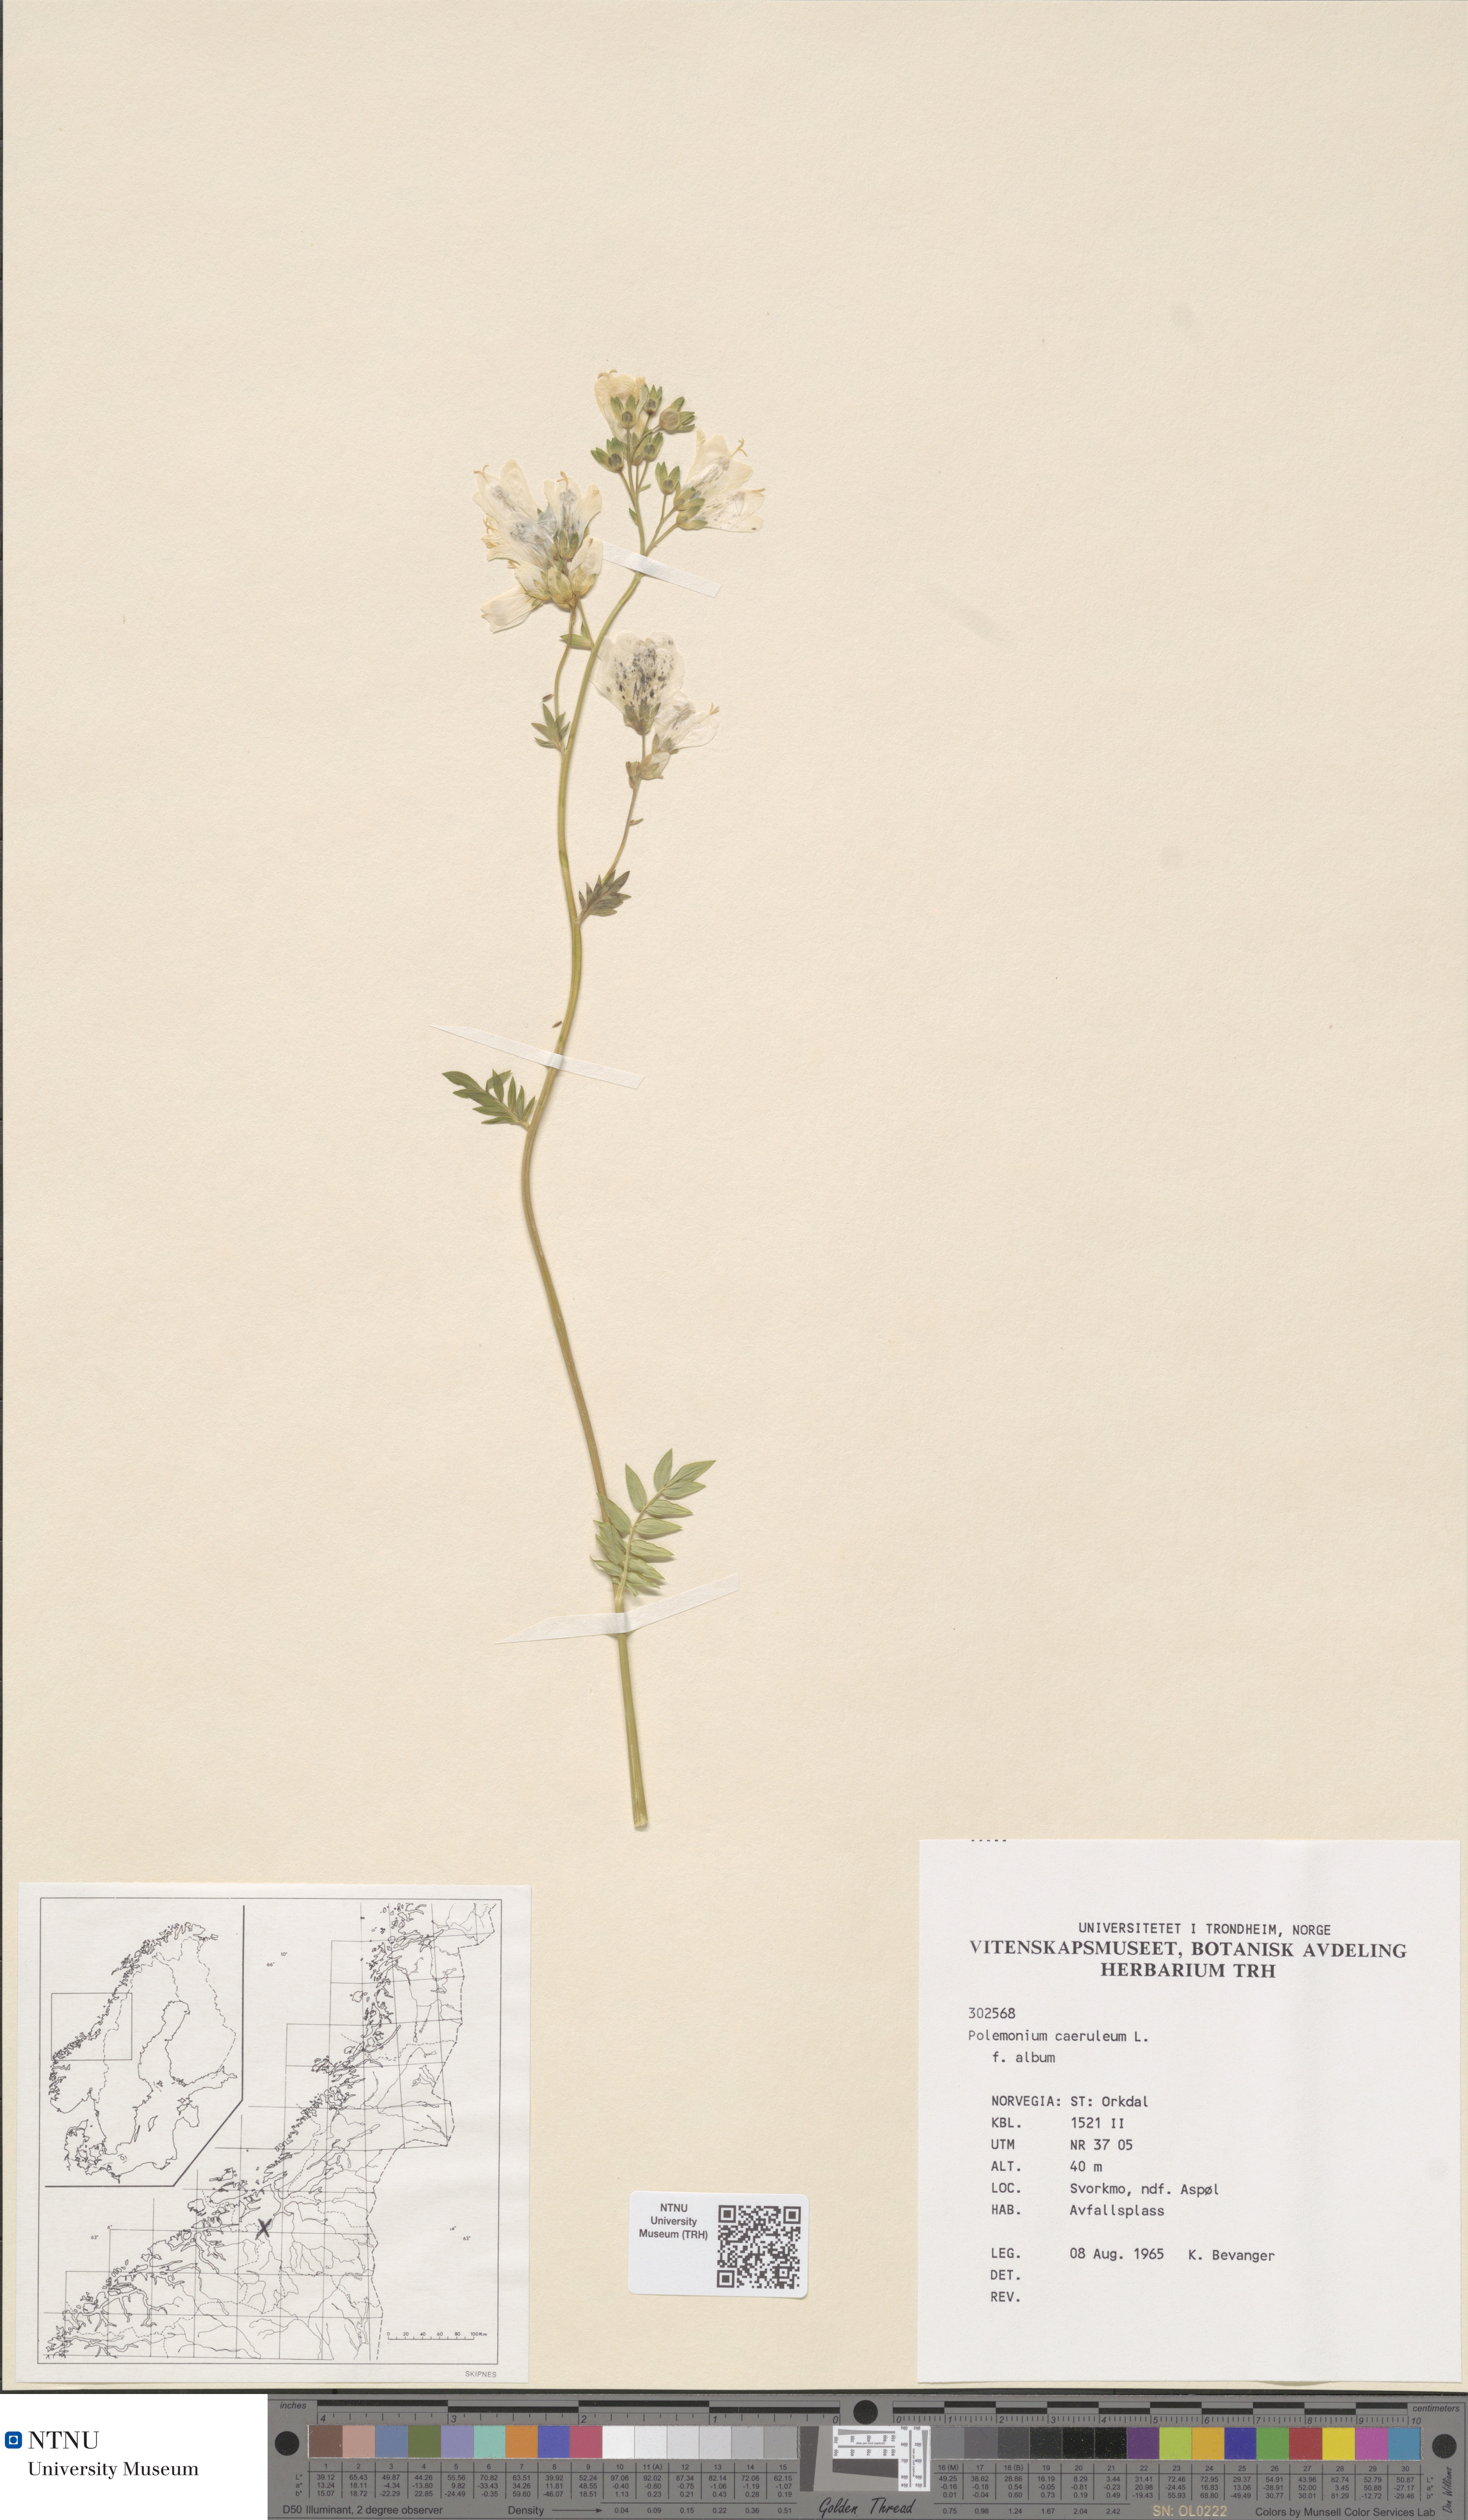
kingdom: Plantae
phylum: Tracheophyta
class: Magnoliopsida
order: Ericales
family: Polemoniaceae
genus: Polemonium
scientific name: Polemonium caeruleum
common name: Jacob's-ladder
